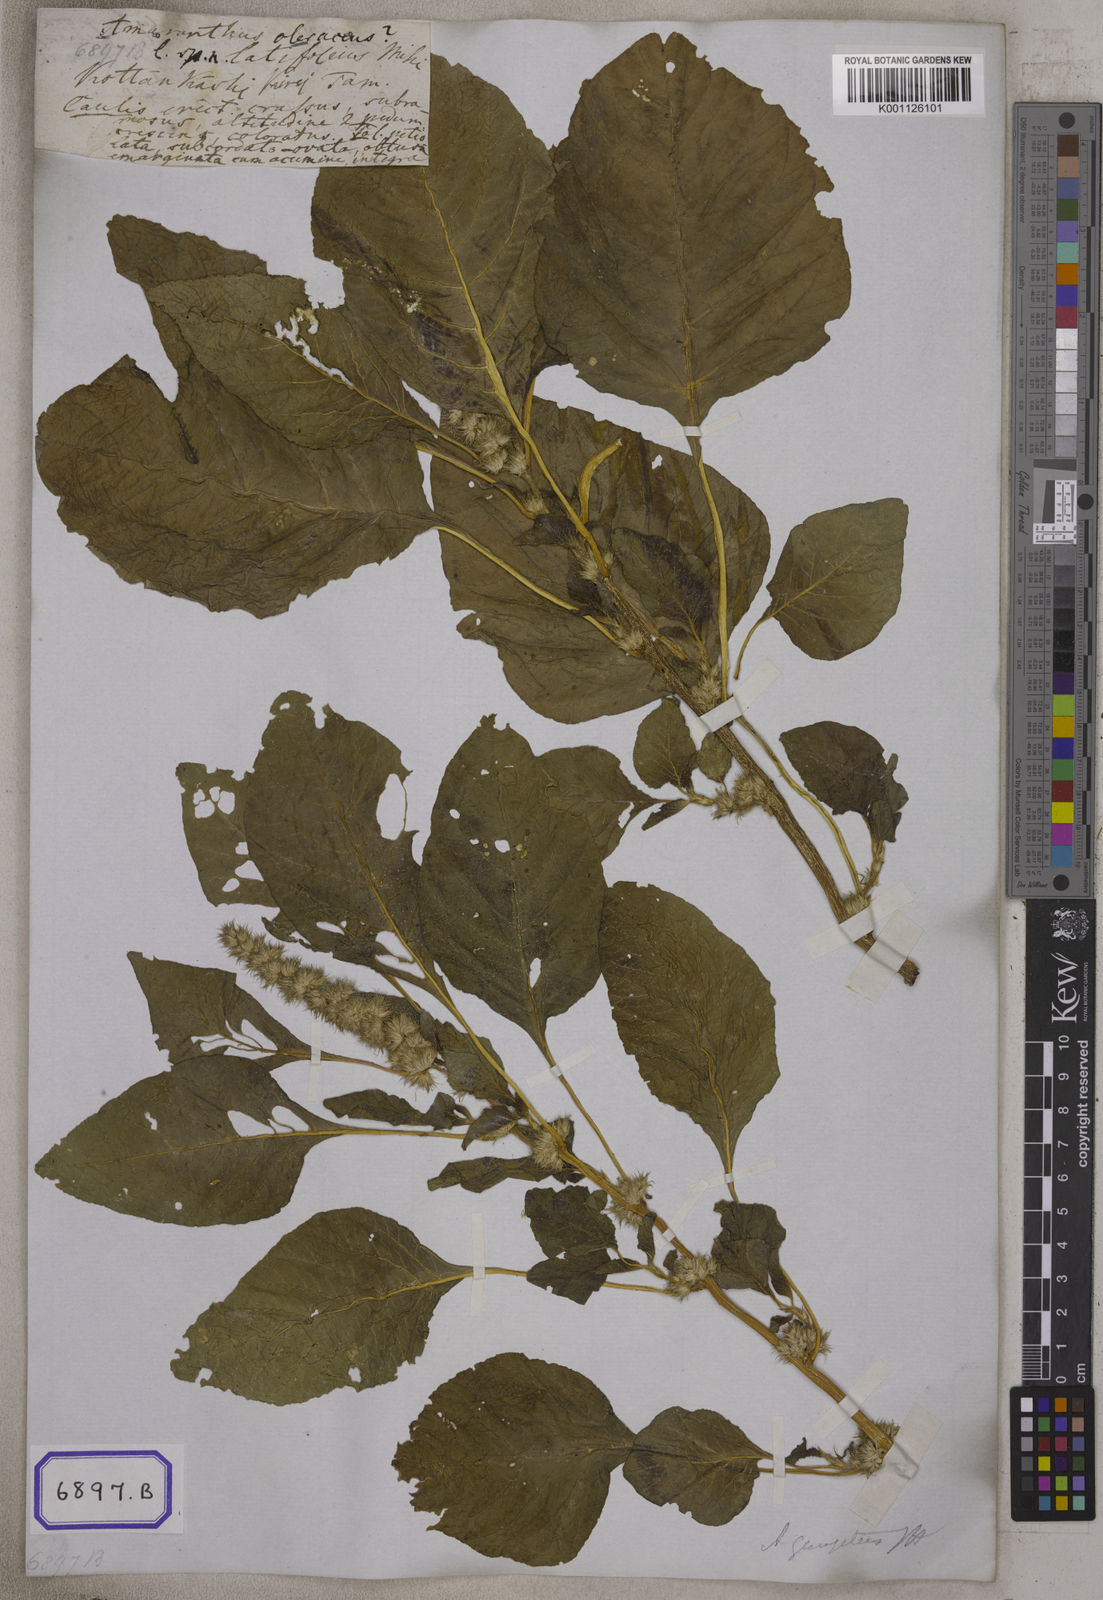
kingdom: Plantae
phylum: Tracheophyta
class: Magnoliopsida
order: Caryophyllales
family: Amaranthaceae
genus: Amaranthus
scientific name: Amaranthus
